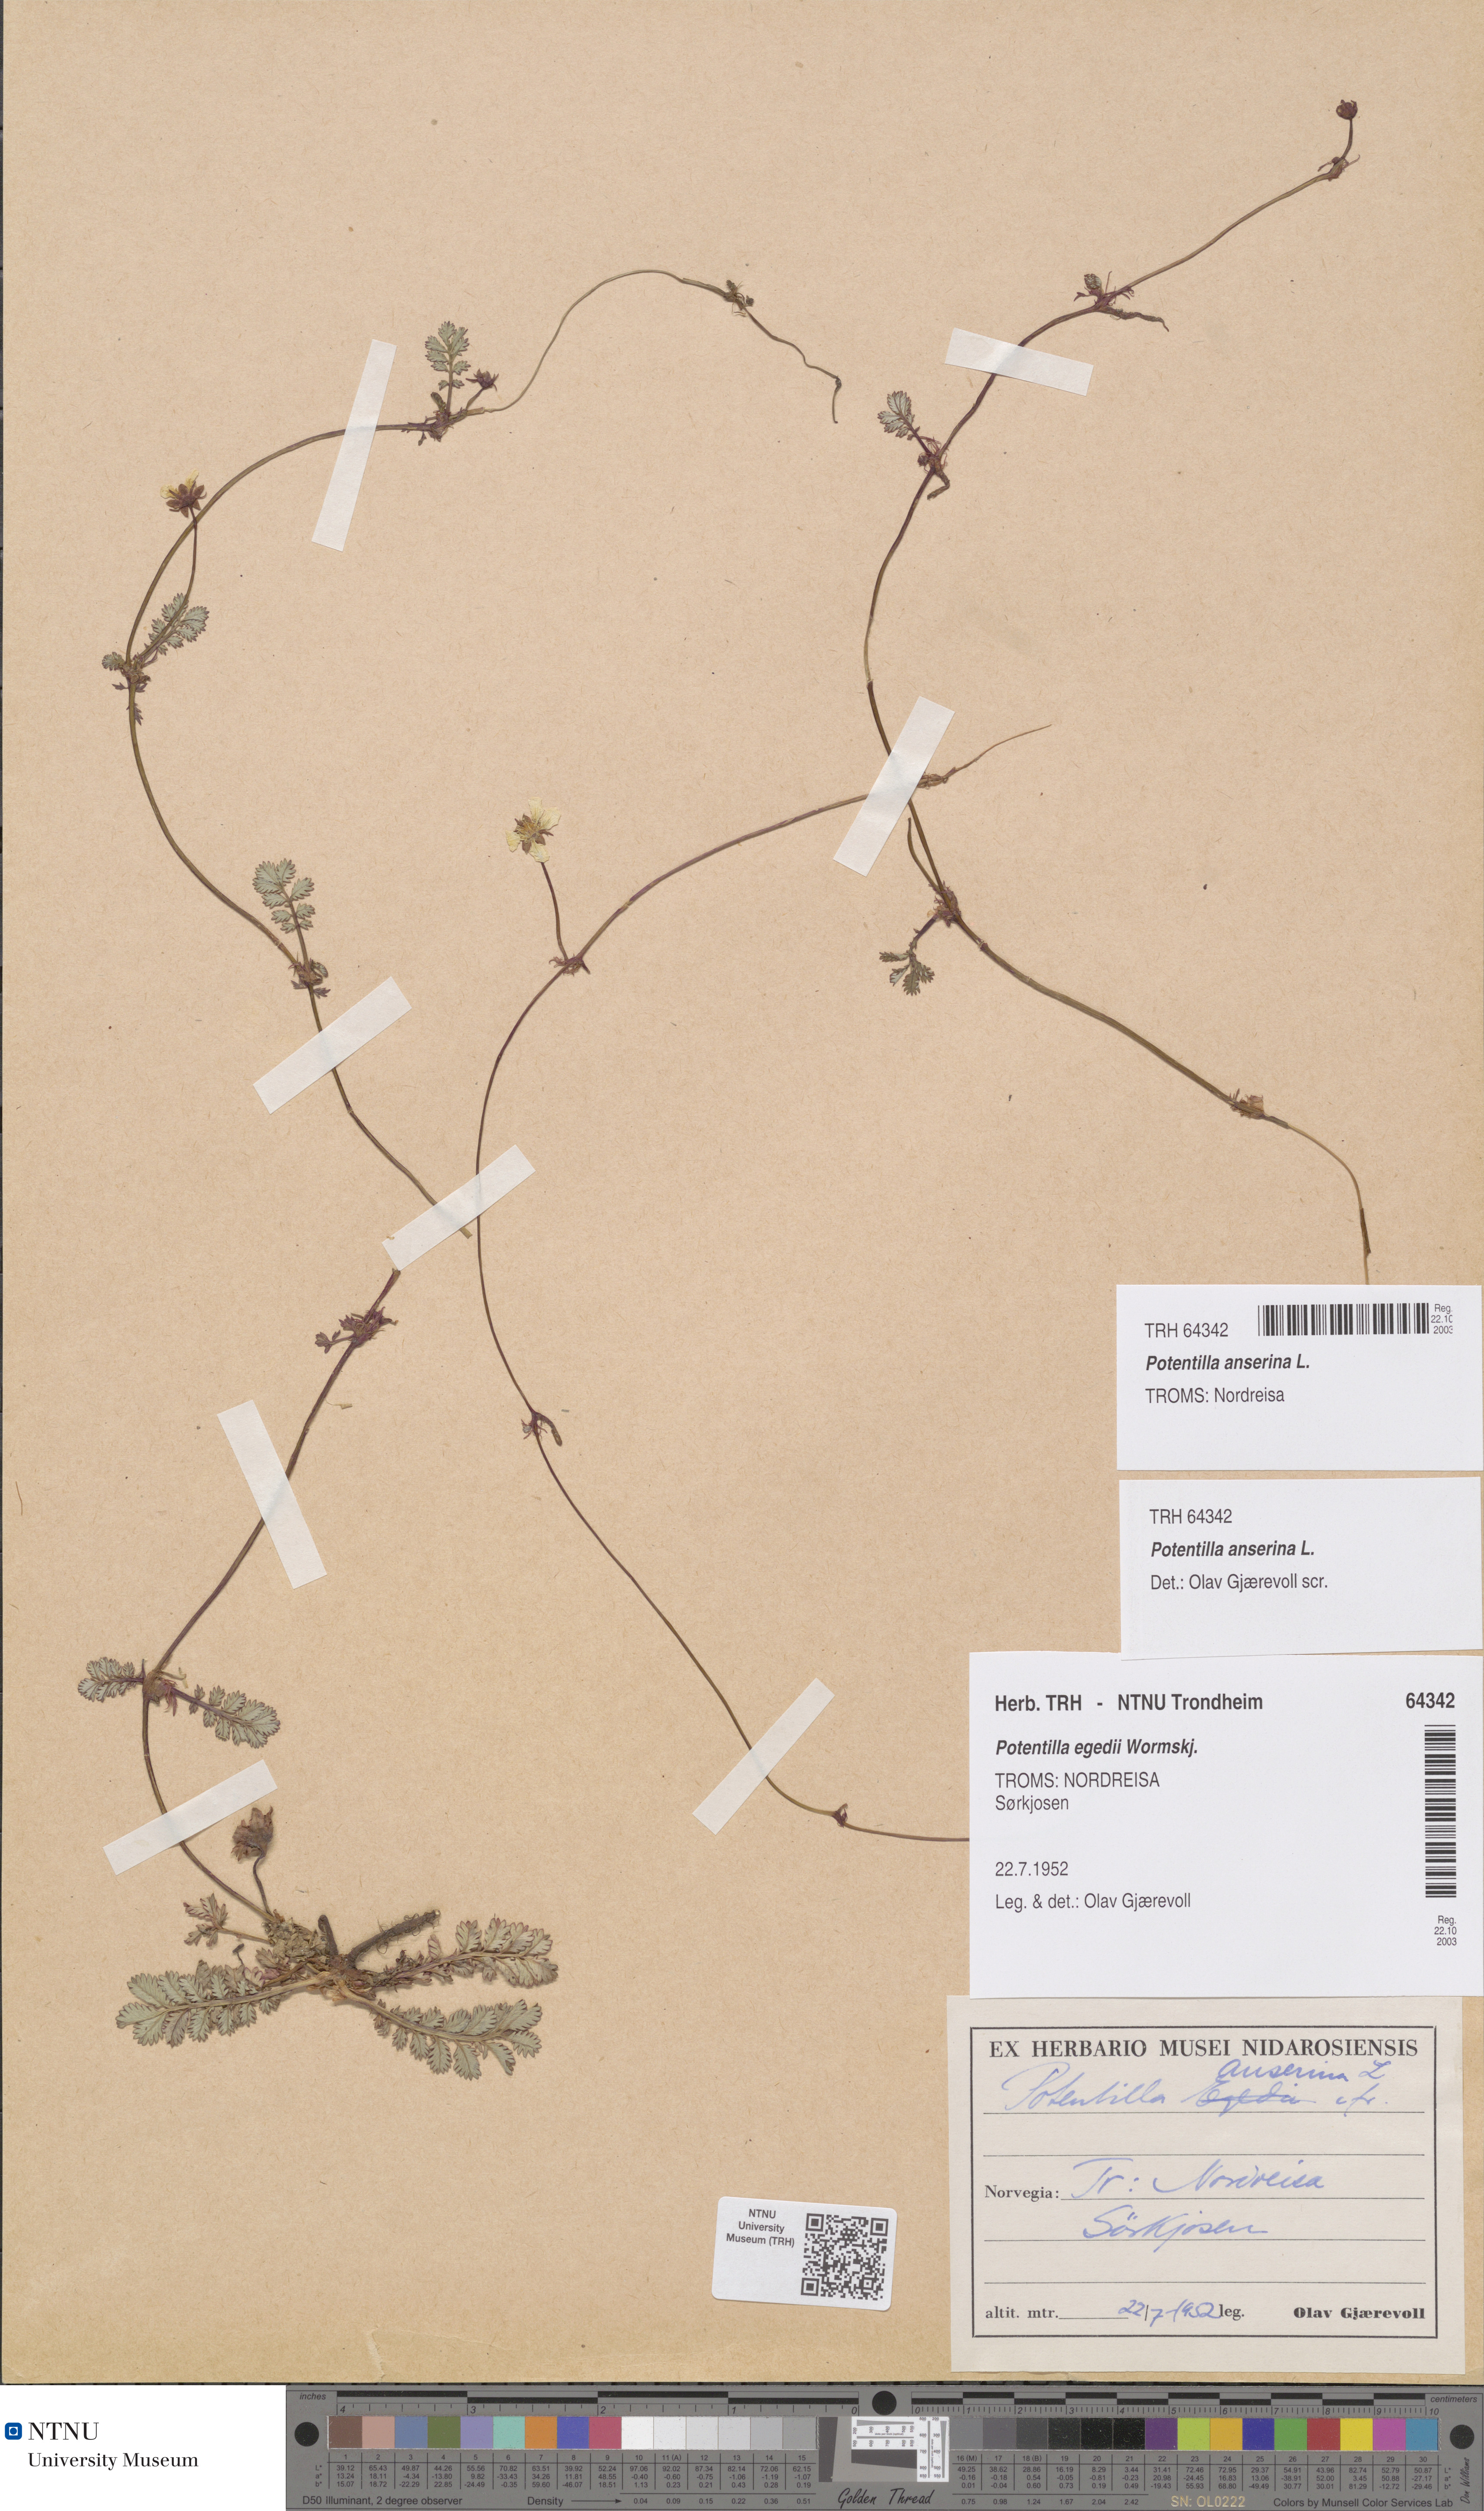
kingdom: Plantae
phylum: Tracheophyta
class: Magnoliopsida
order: Rosales
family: Rosaceae
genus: Argentina
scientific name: Argentina anserina
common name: Common silverweed
